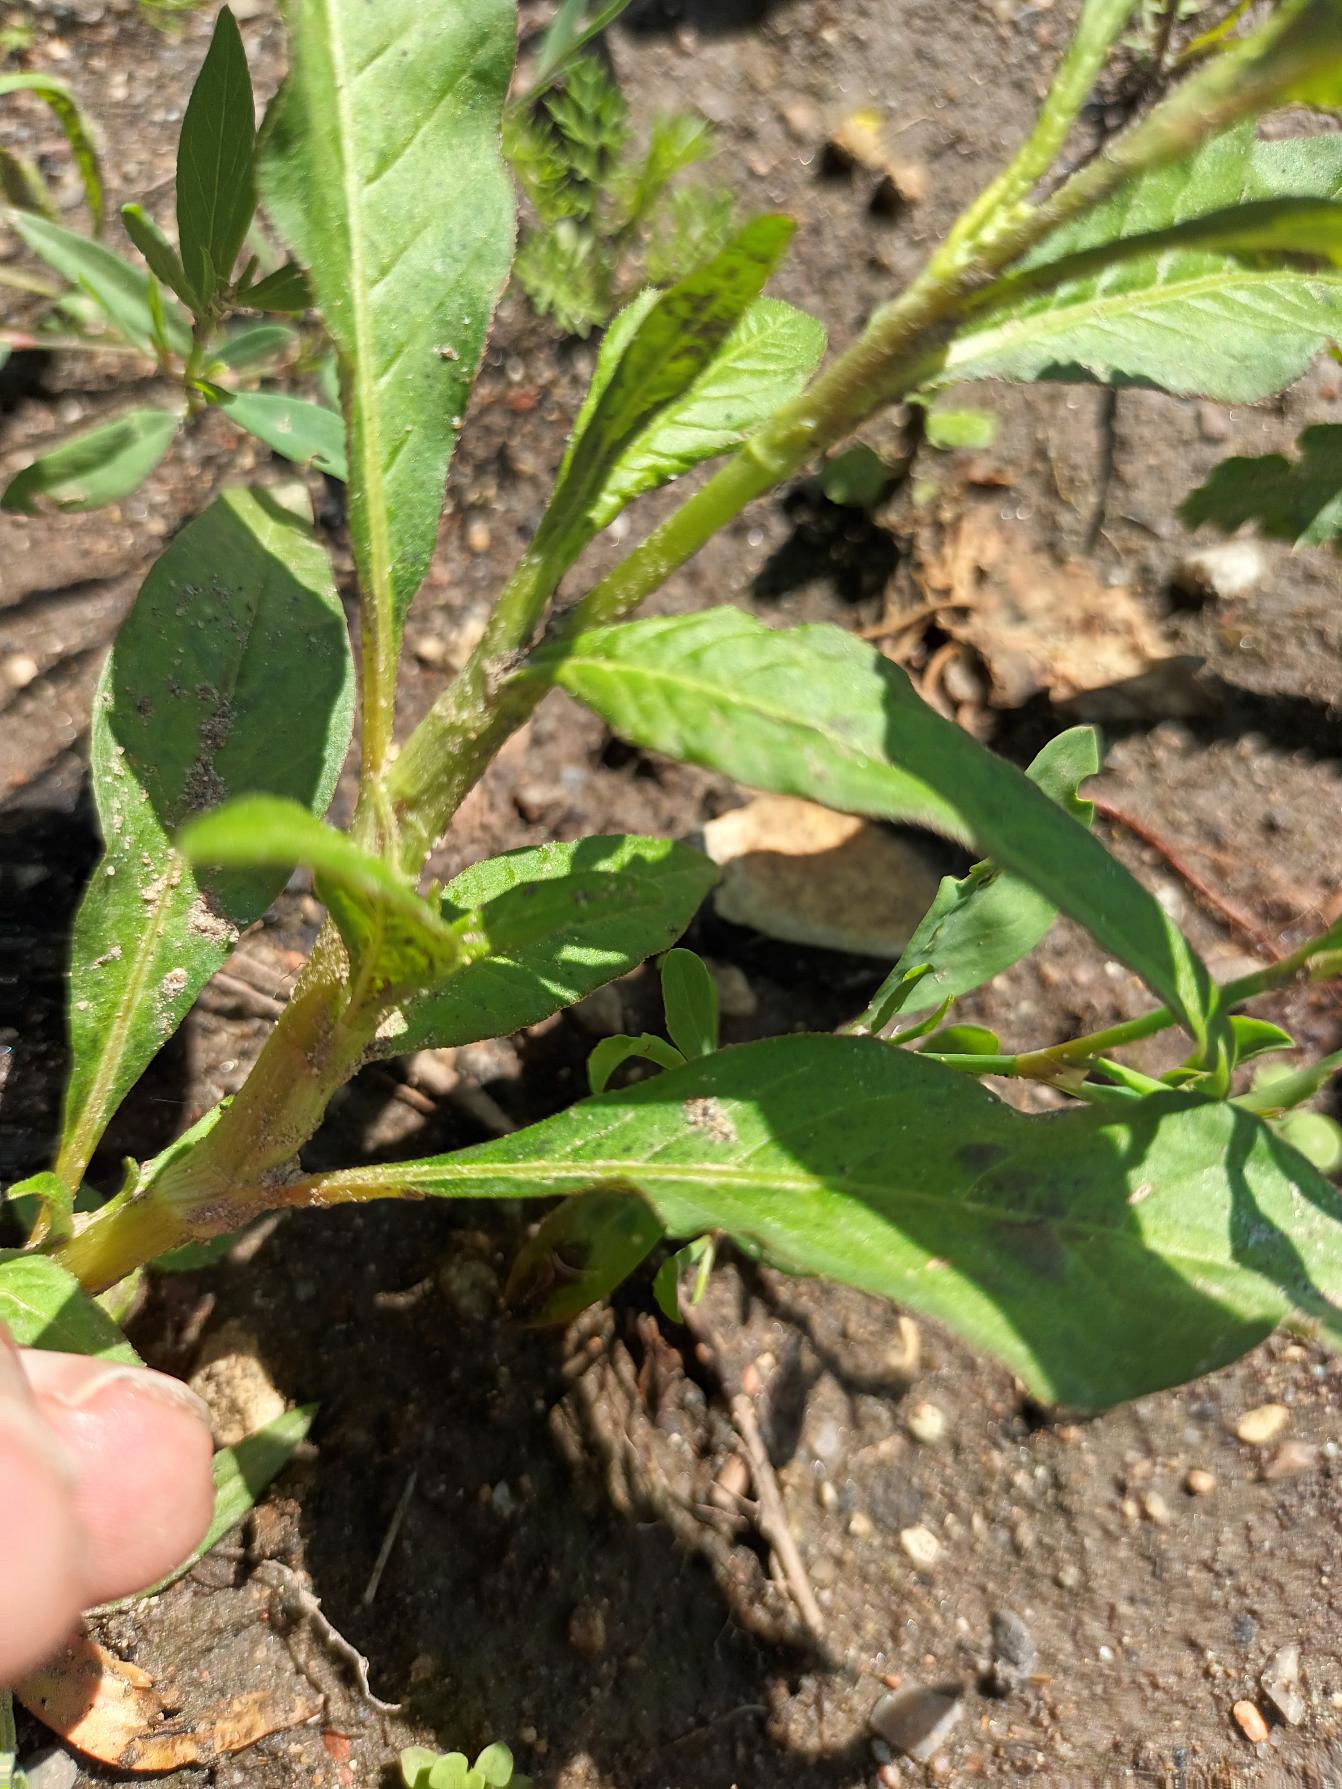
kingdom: Plantae
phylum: Tracheophyta
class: Magnoliopsida
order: Caryophyllales
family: Polygonaceae
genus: Persicaria
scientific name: Persicaria lapathifolia
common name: Knudet pileurt
